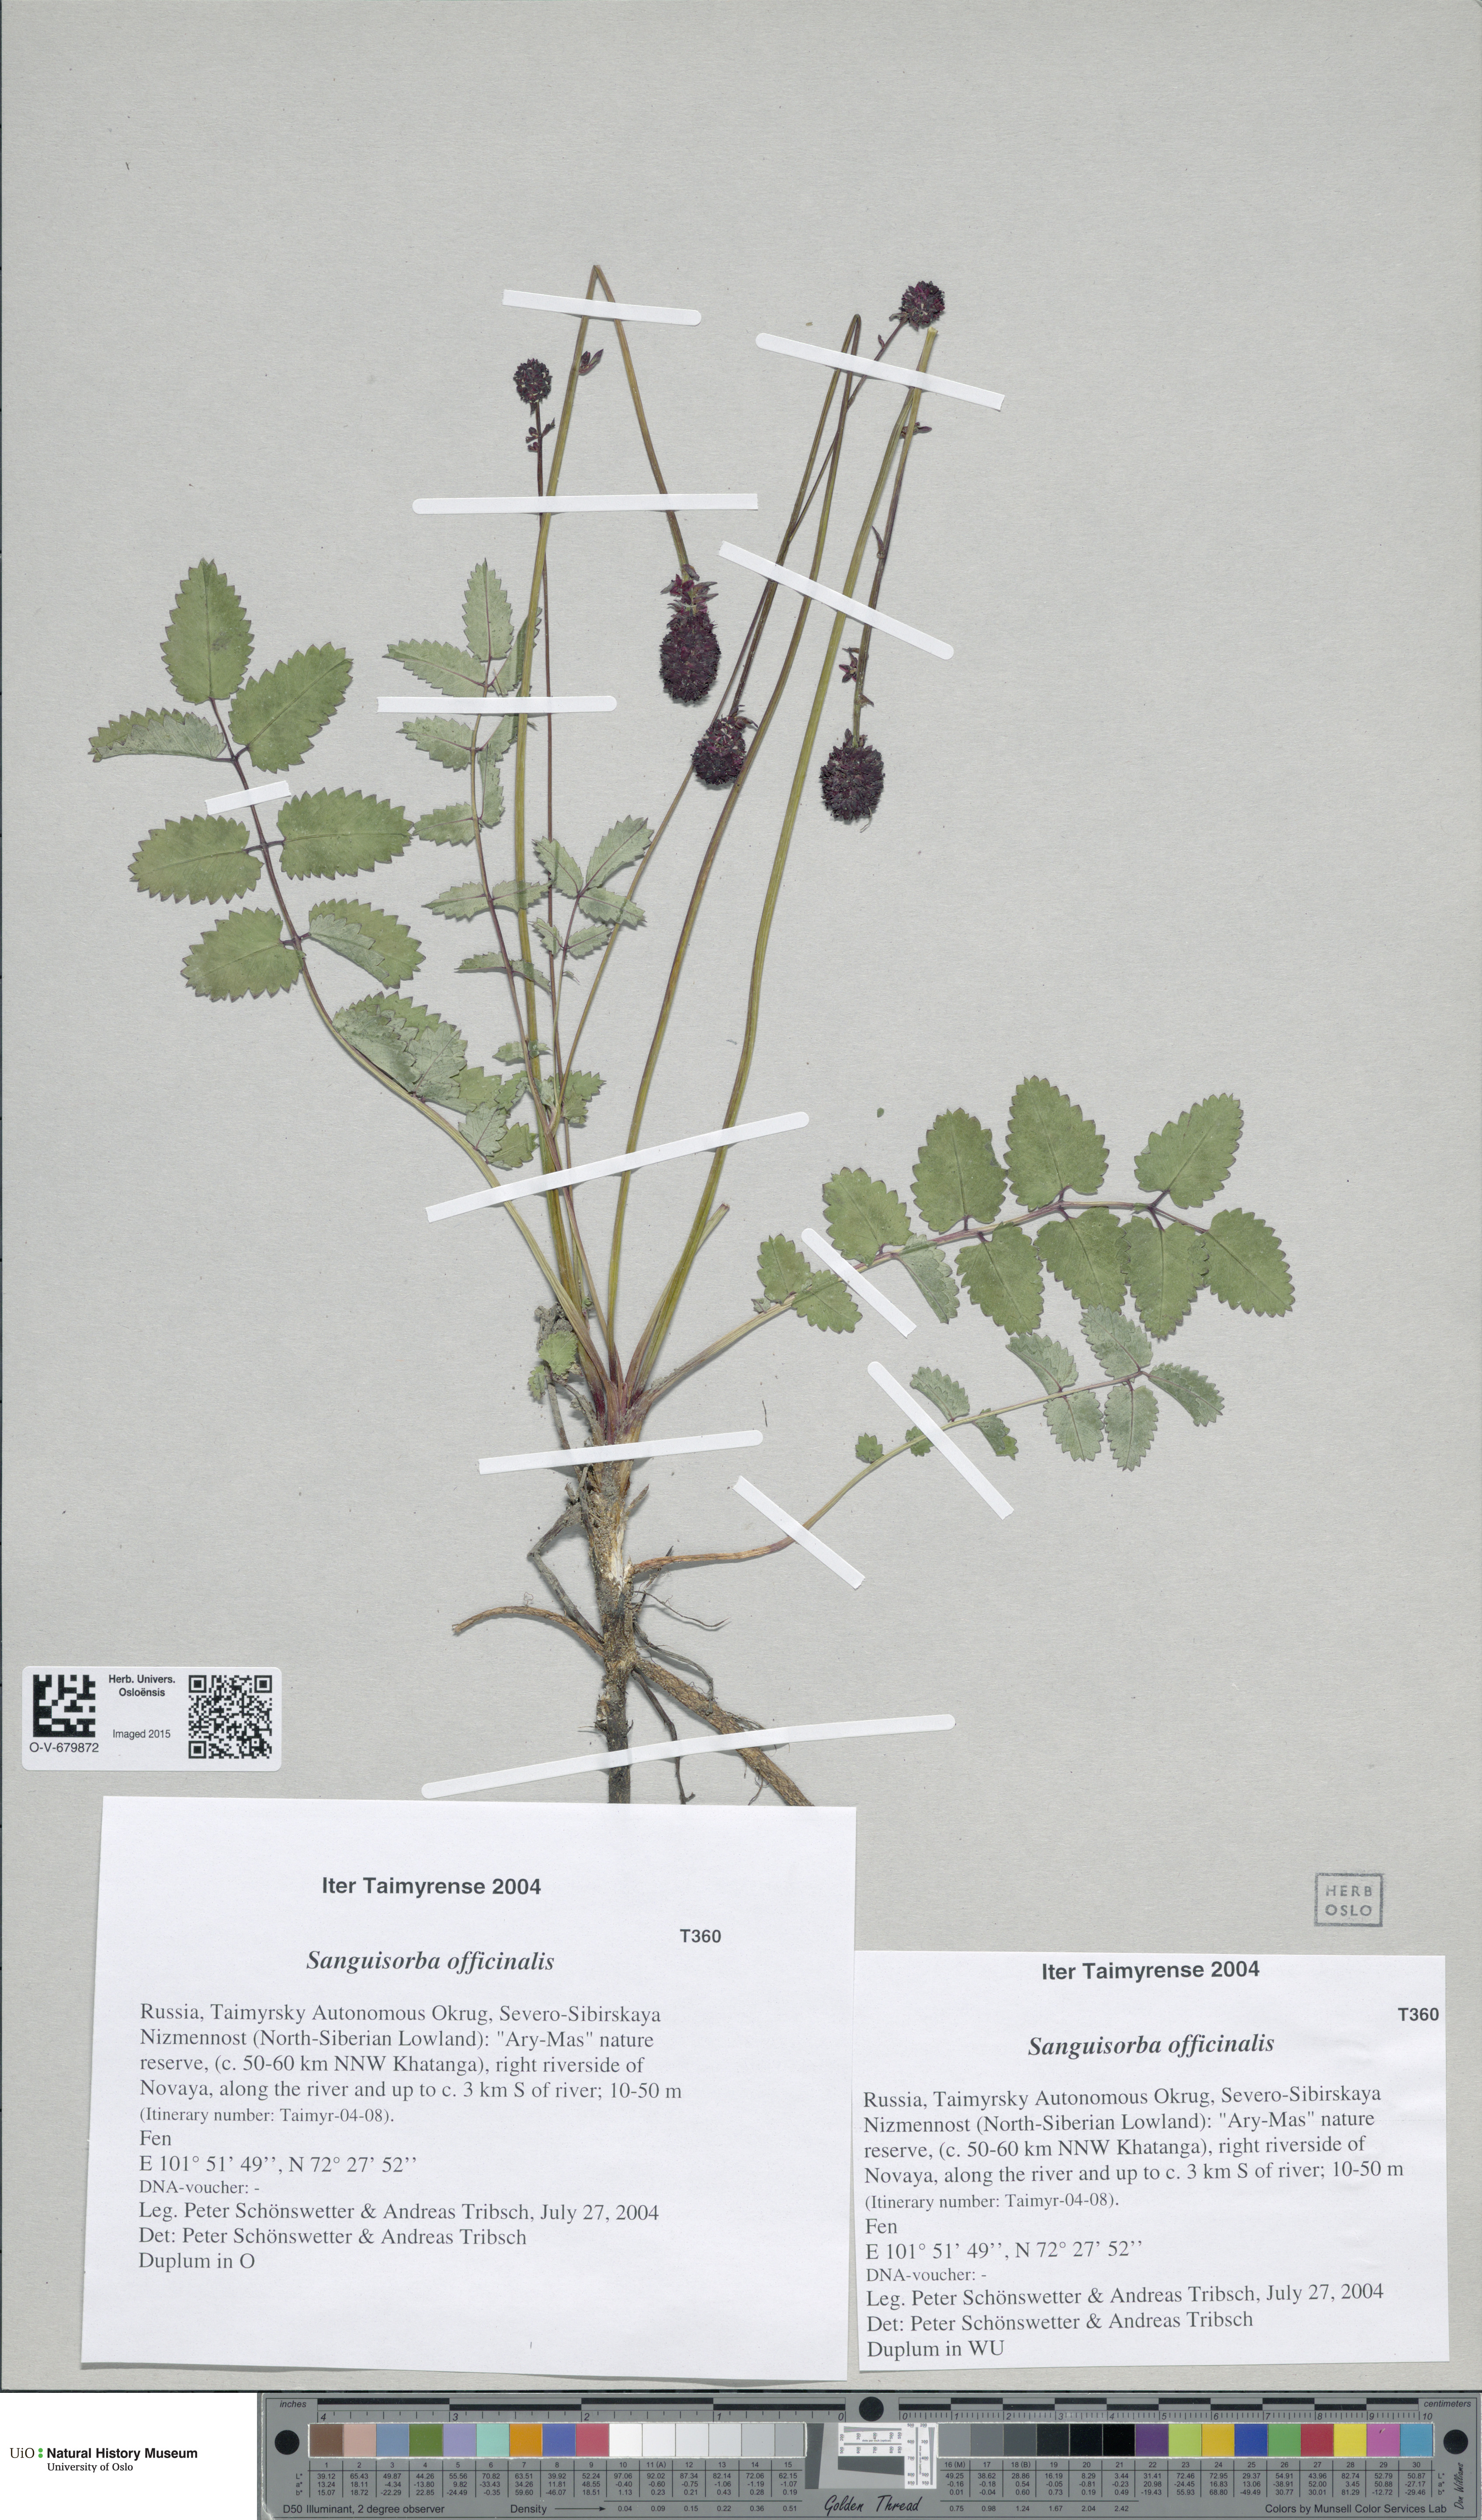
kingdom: Plantae
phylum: Tracheophyta
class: Magnoliopsida
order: Rosales
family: Rosaceae
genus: Sanguisorba
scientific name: Sanguisorba officinalis
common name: Great burnet
